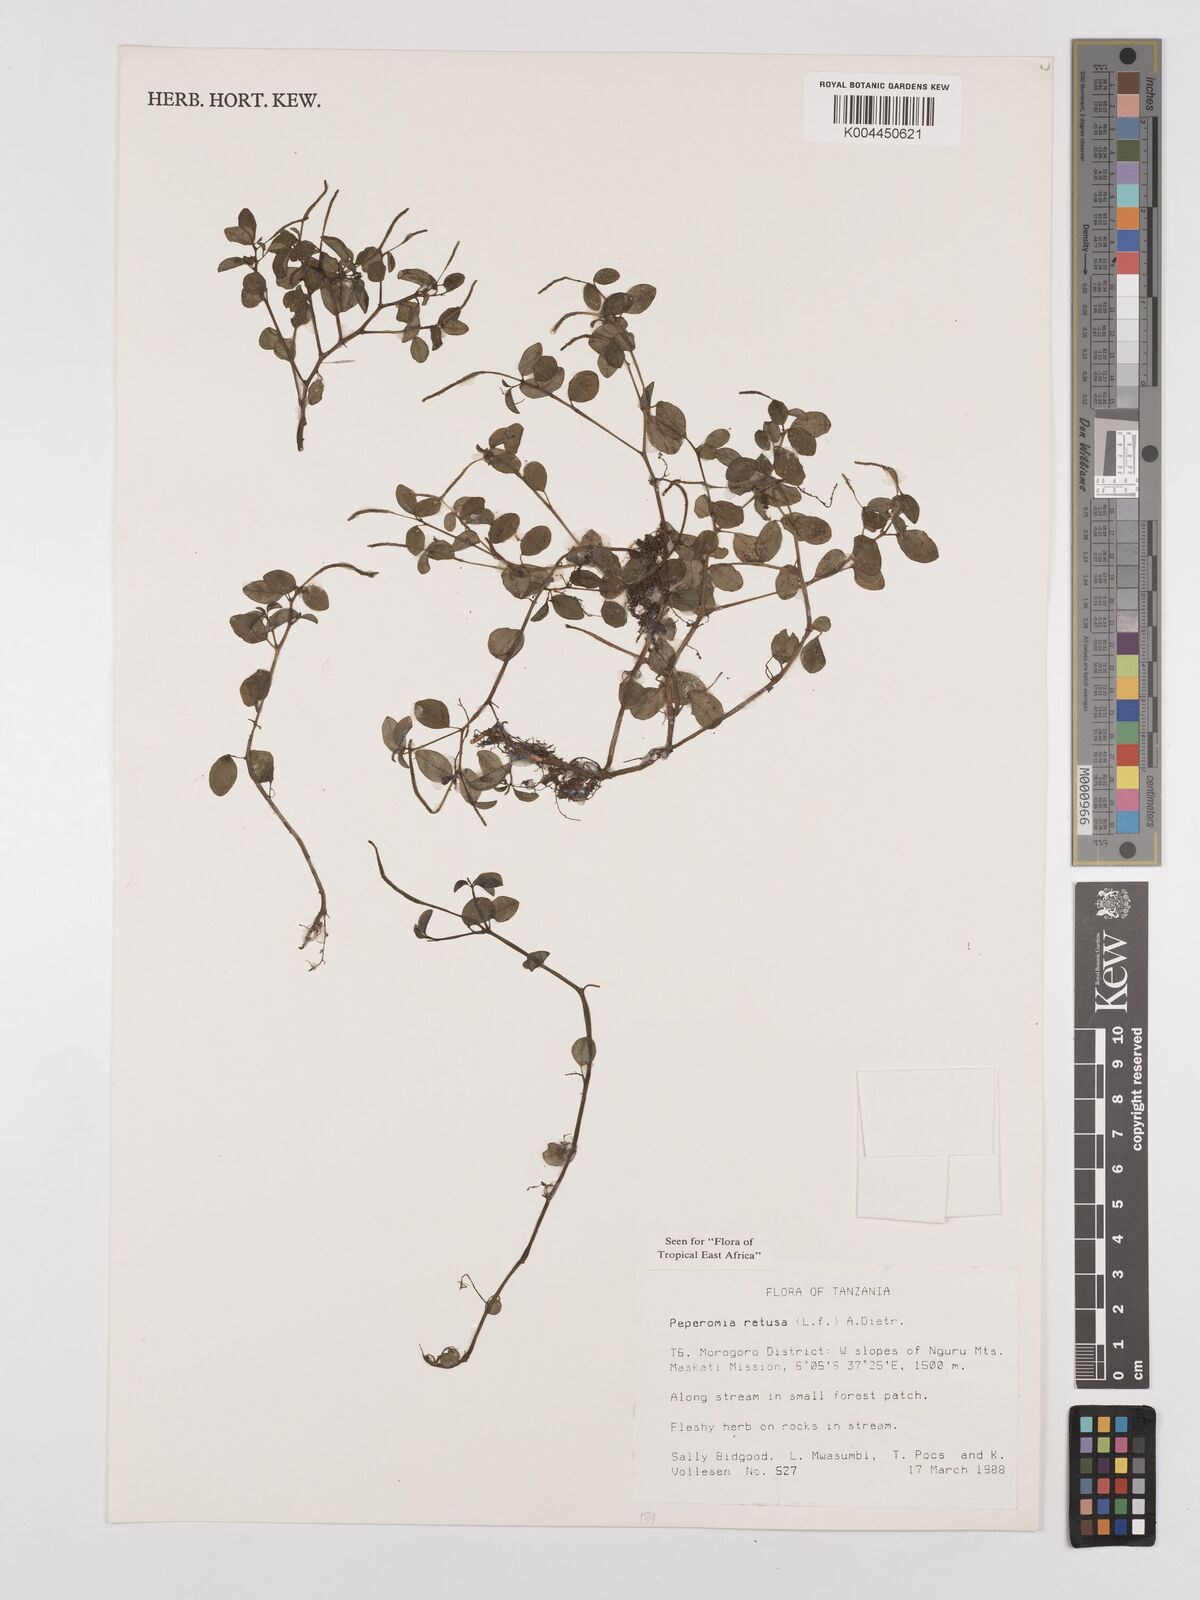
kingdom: Plantae
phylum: Tracheophyta
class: Magnoliopsida
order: Piperales
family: Piperaceae
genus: Peperomia
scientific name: Peperomia retusa
